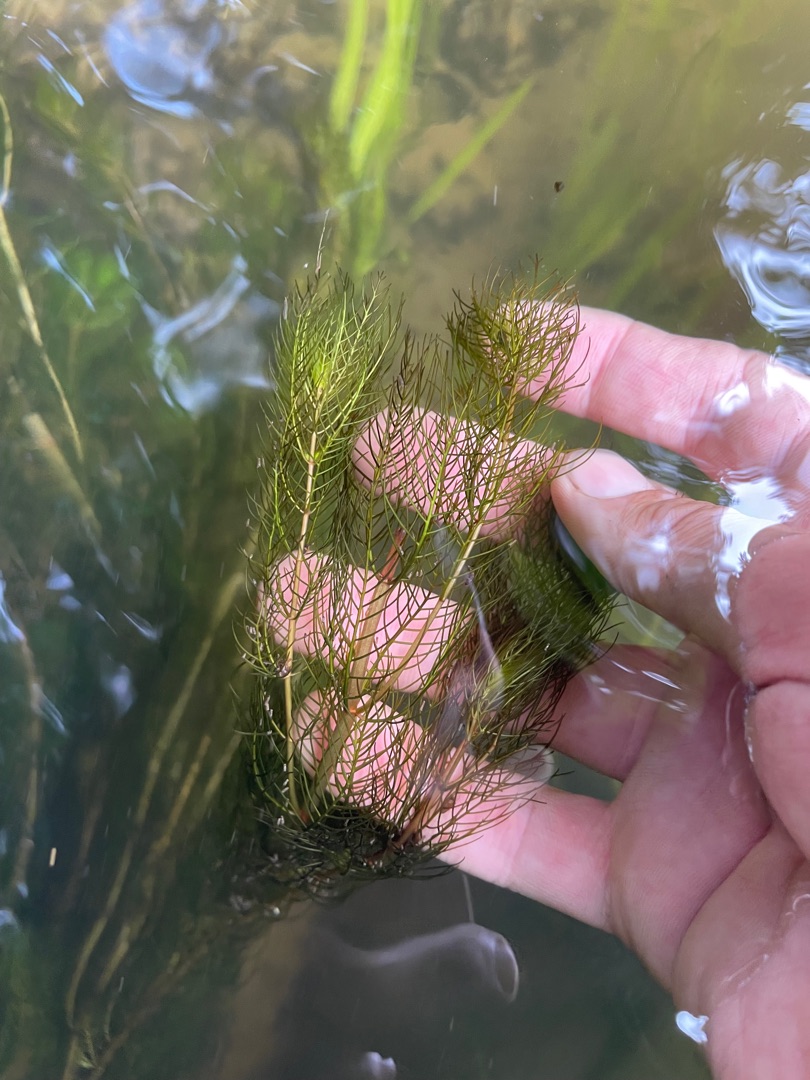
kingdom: Plantae
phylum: Tracheophyta
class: Magnoliopsida
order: Saxifragales
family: Haloragaceae
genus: Myriophyllum
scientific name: Myriophyllum spicatum
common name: Aks-tusindblad
